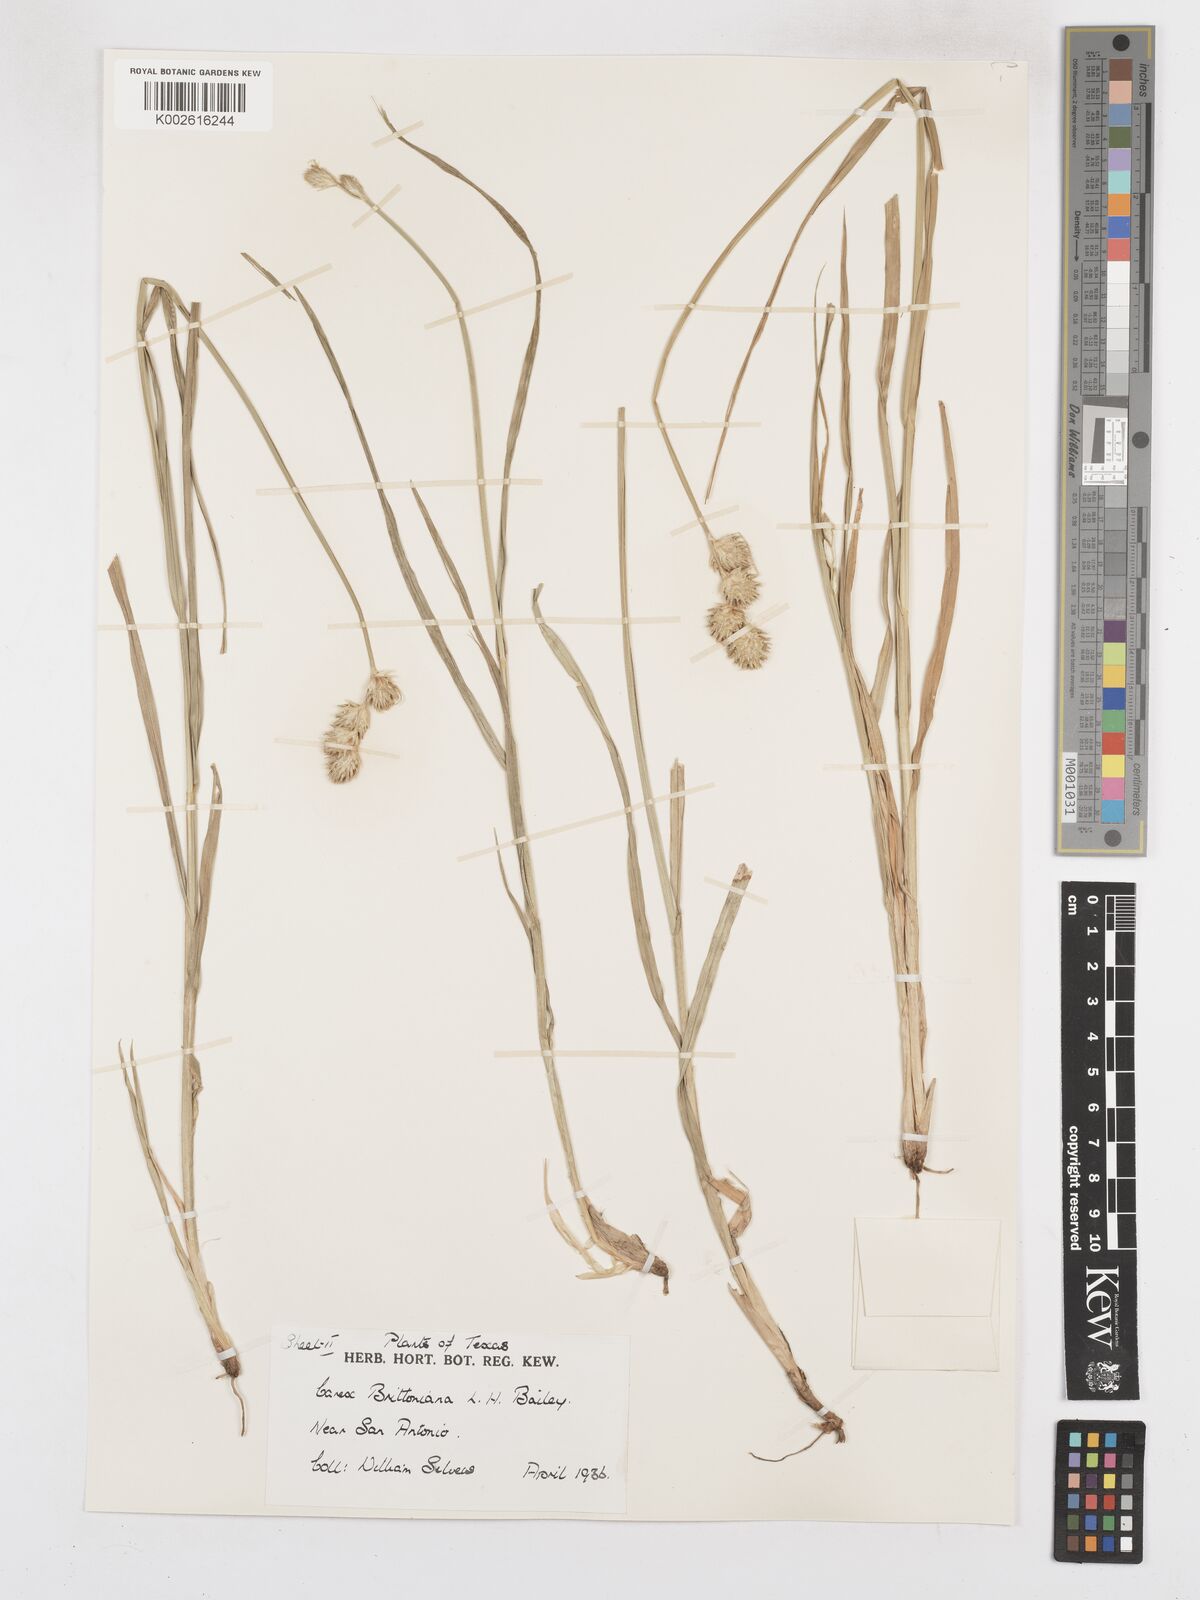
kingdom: Plantae
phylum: Tracheophyta
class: Liliopsida
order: Poales
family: Cyperaceae
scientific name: Cyperaceae
